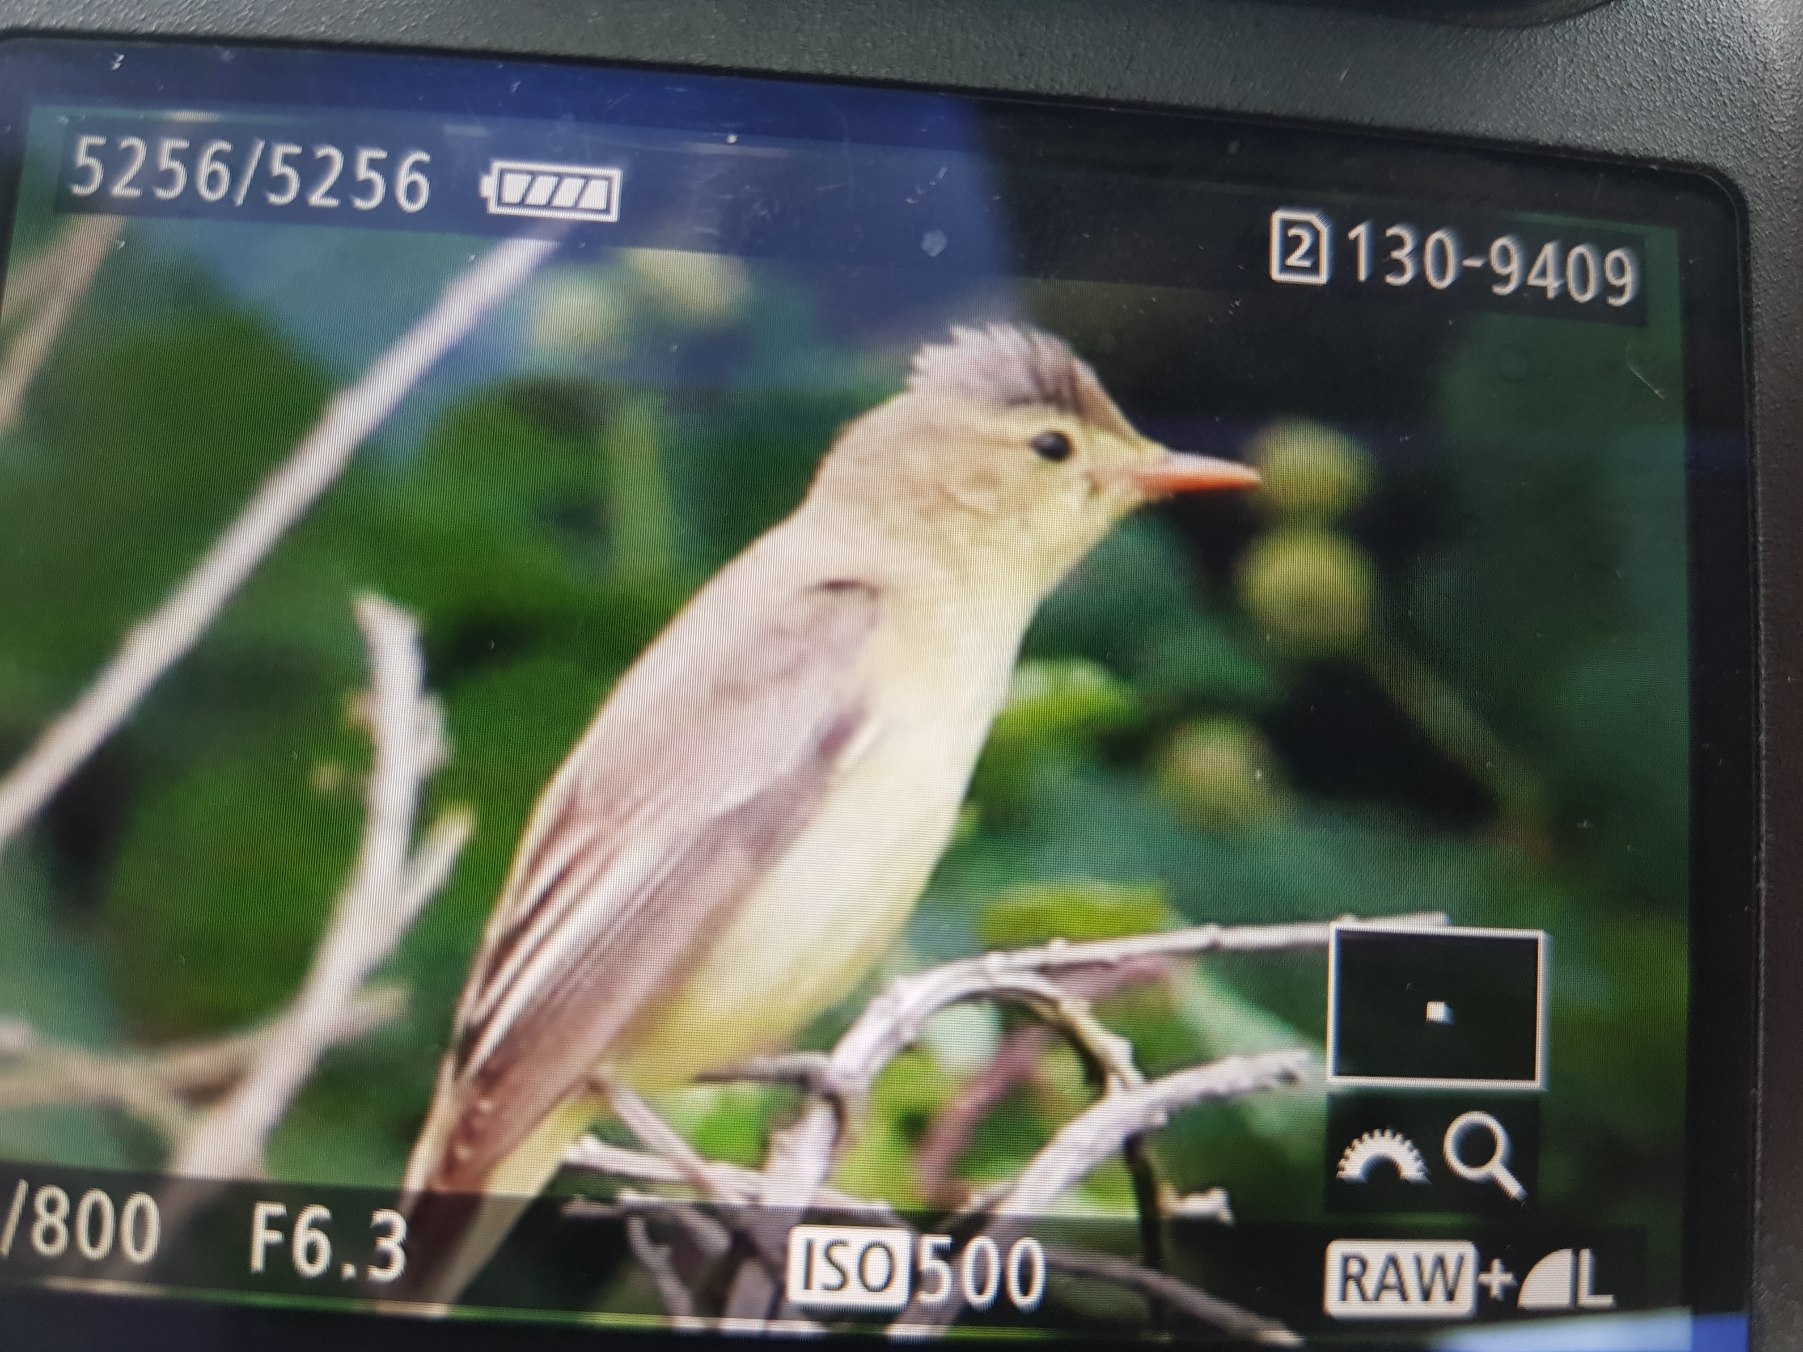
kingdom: Animalia
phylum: Chordata
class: Aves
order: Passeriformes
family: Acrocephalidae
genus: Hippolais
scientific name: Hippolais icterina
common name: Gulbug
